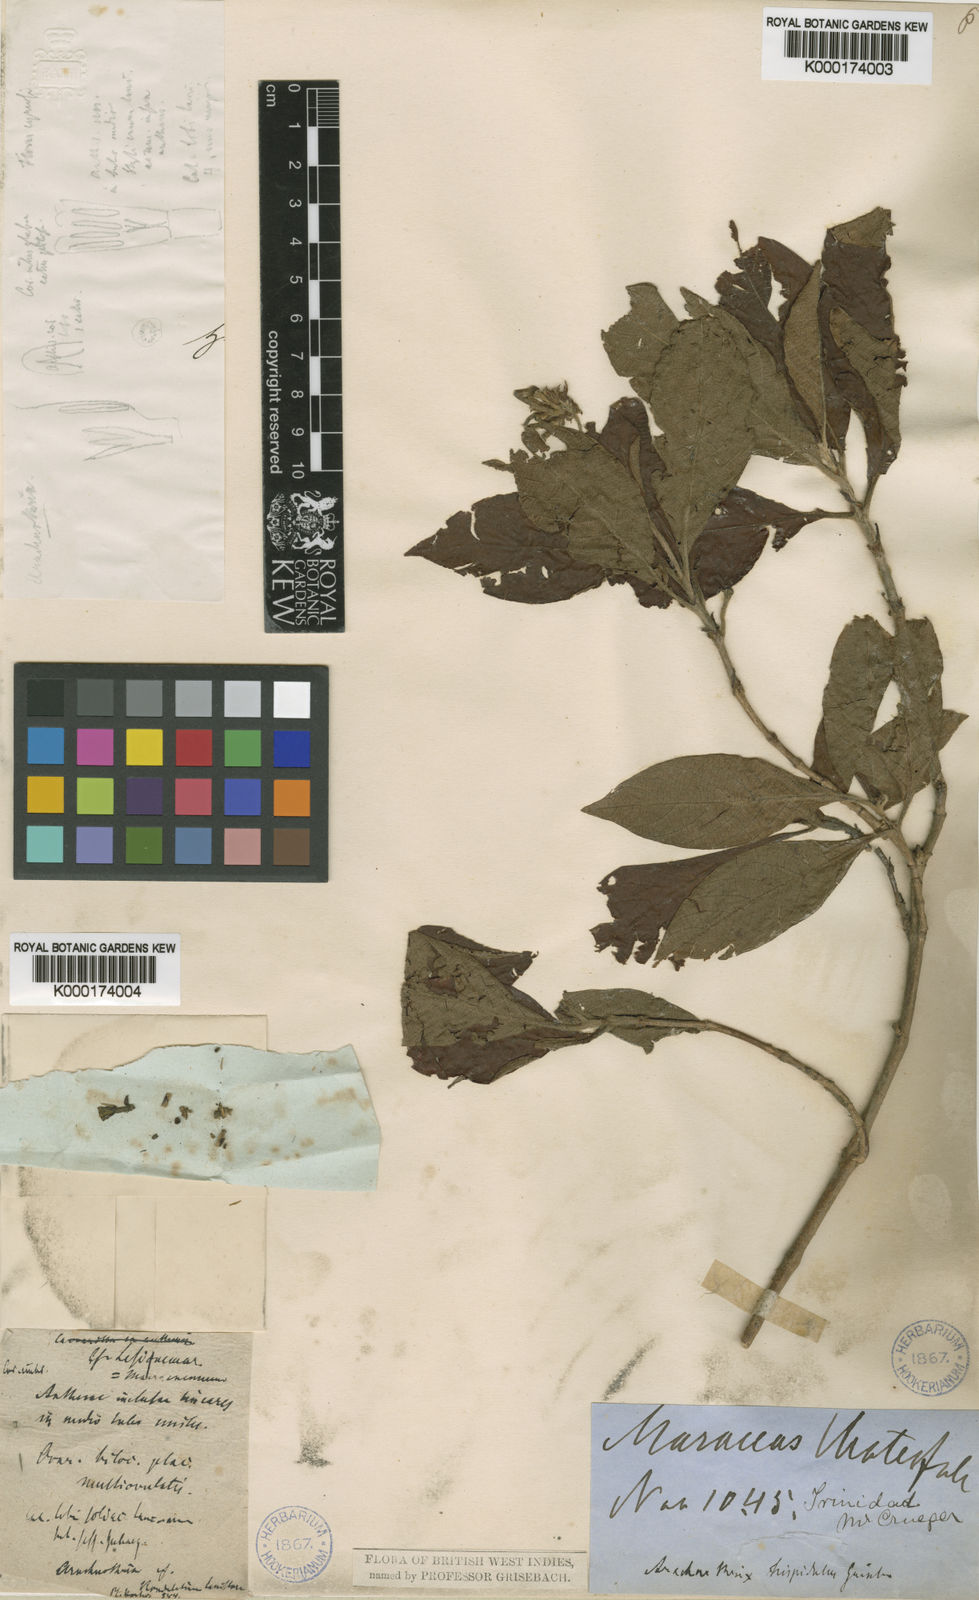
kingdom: Plantae
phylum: Tracheophyta
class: Magnoliopsida
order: Gentianales
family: Rubiaceae
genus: Arachnothryx
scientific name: Arachnothryx hispidula
